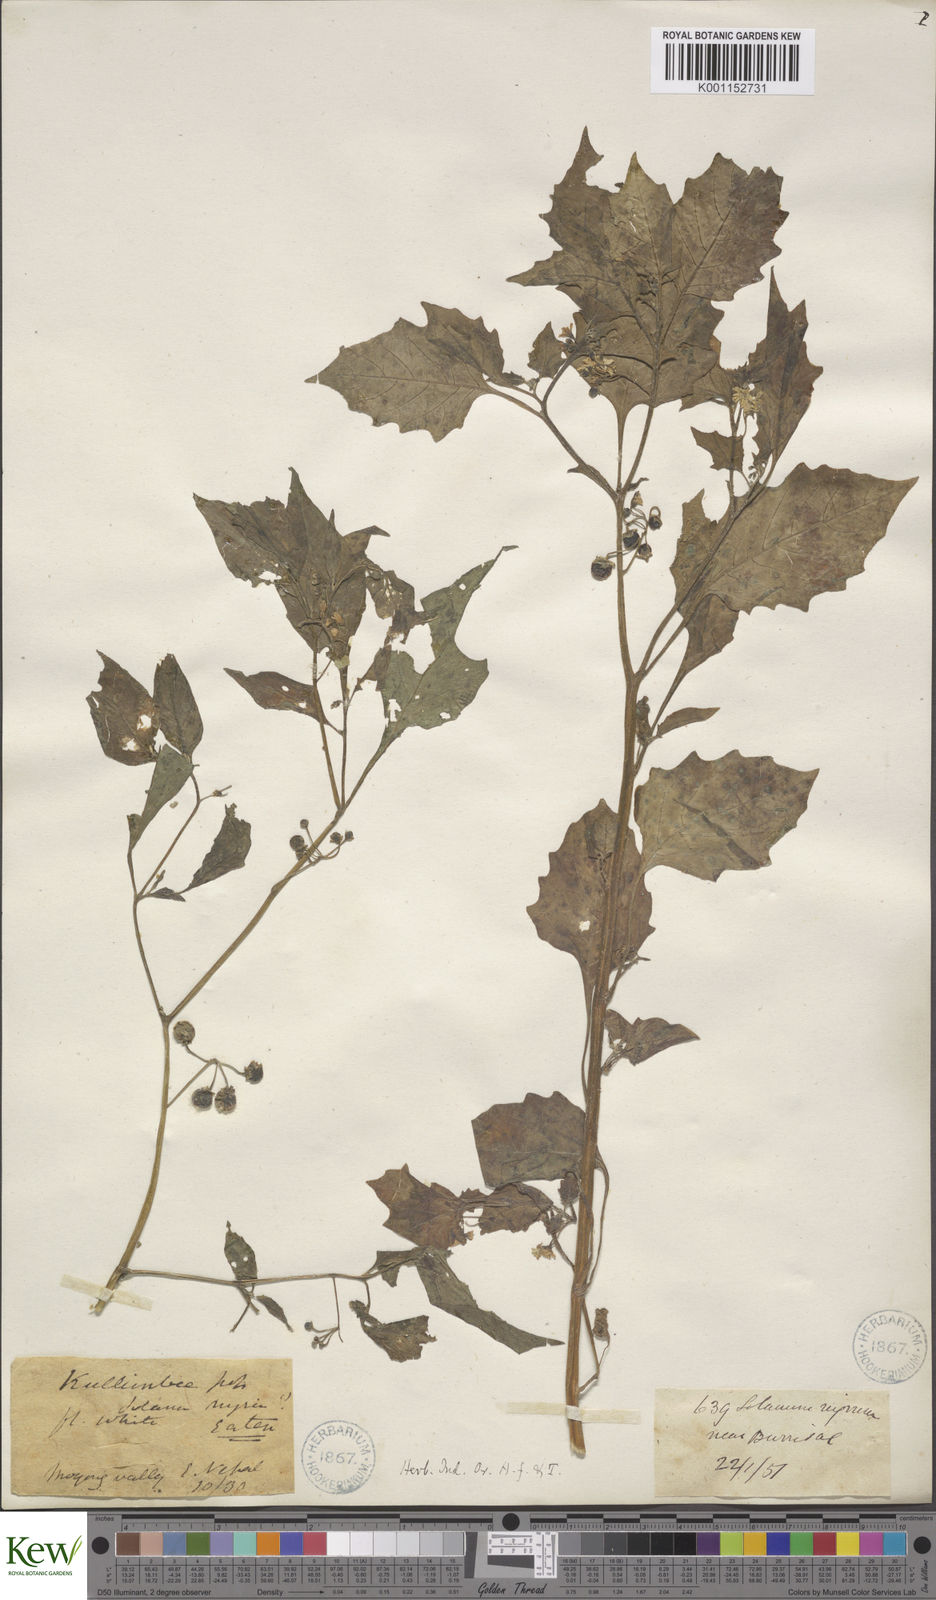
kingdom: Plantae
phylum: Tracheophyta
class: Magnoliopsida
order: Solanales
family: Solanaceae
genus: Solanum
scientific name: Solanum nigrum
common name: Black nightshade
